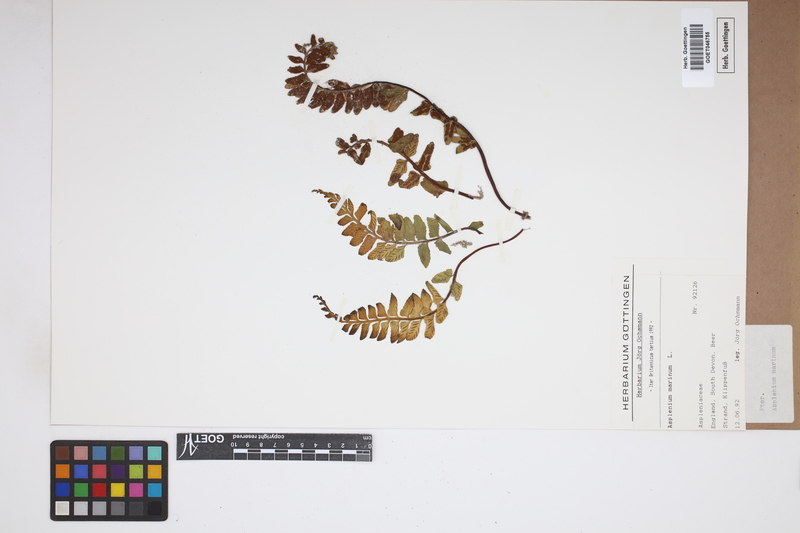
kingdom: Plantae
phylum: Tracheophyta
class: Polypodiopsida
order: Polypodiales
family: Aspleniaceae
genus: Asplenium
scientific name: Asplenium marinum
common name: Sea spleenwort
